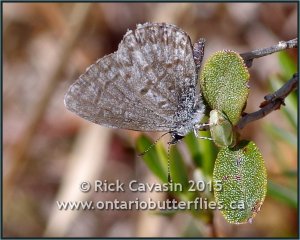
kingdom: Animalia
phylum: Arthropoda
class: Insecta
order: Lepidoptera
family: Lycaenidae
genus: Celastrina
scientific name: Celastrina lucia
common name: Northern Spring Azure
